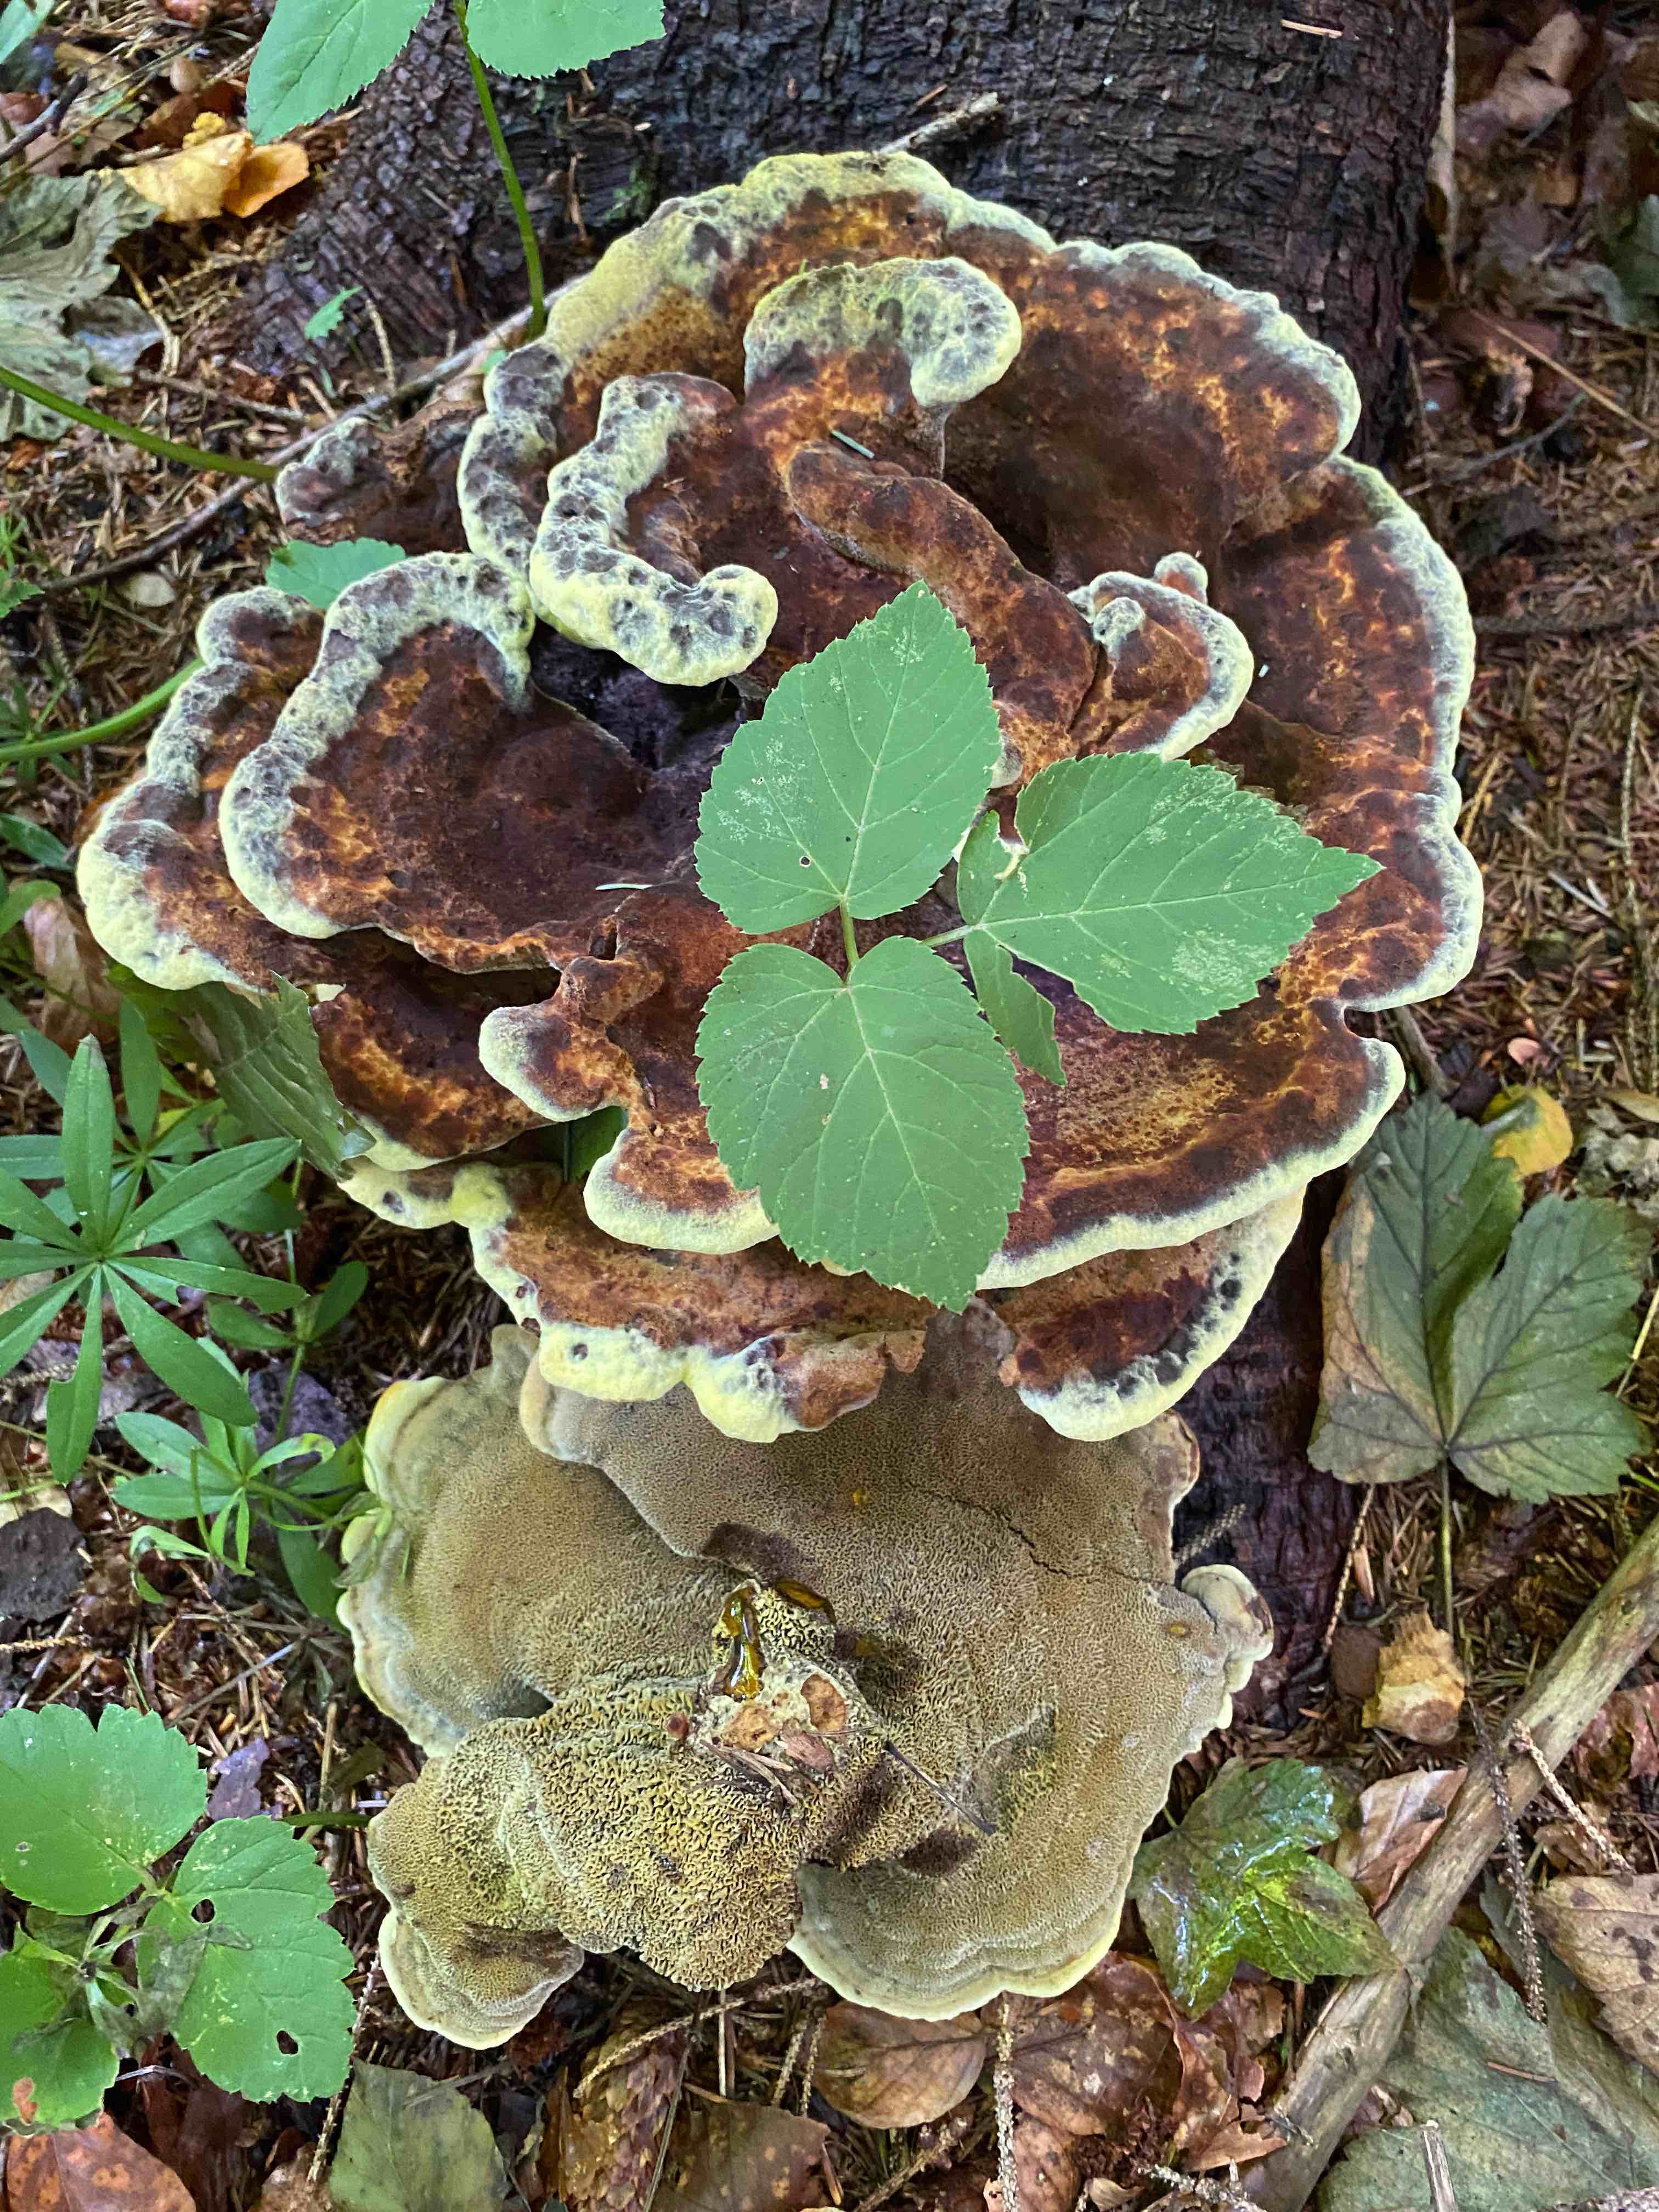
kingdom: Fungi
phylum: Basidiomycota
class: Agaricomycetes
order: Polyporales
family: Laetiporaceae
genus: Phaeolus
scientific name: Phaeolus schweinitzii
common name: brunporesvamp
